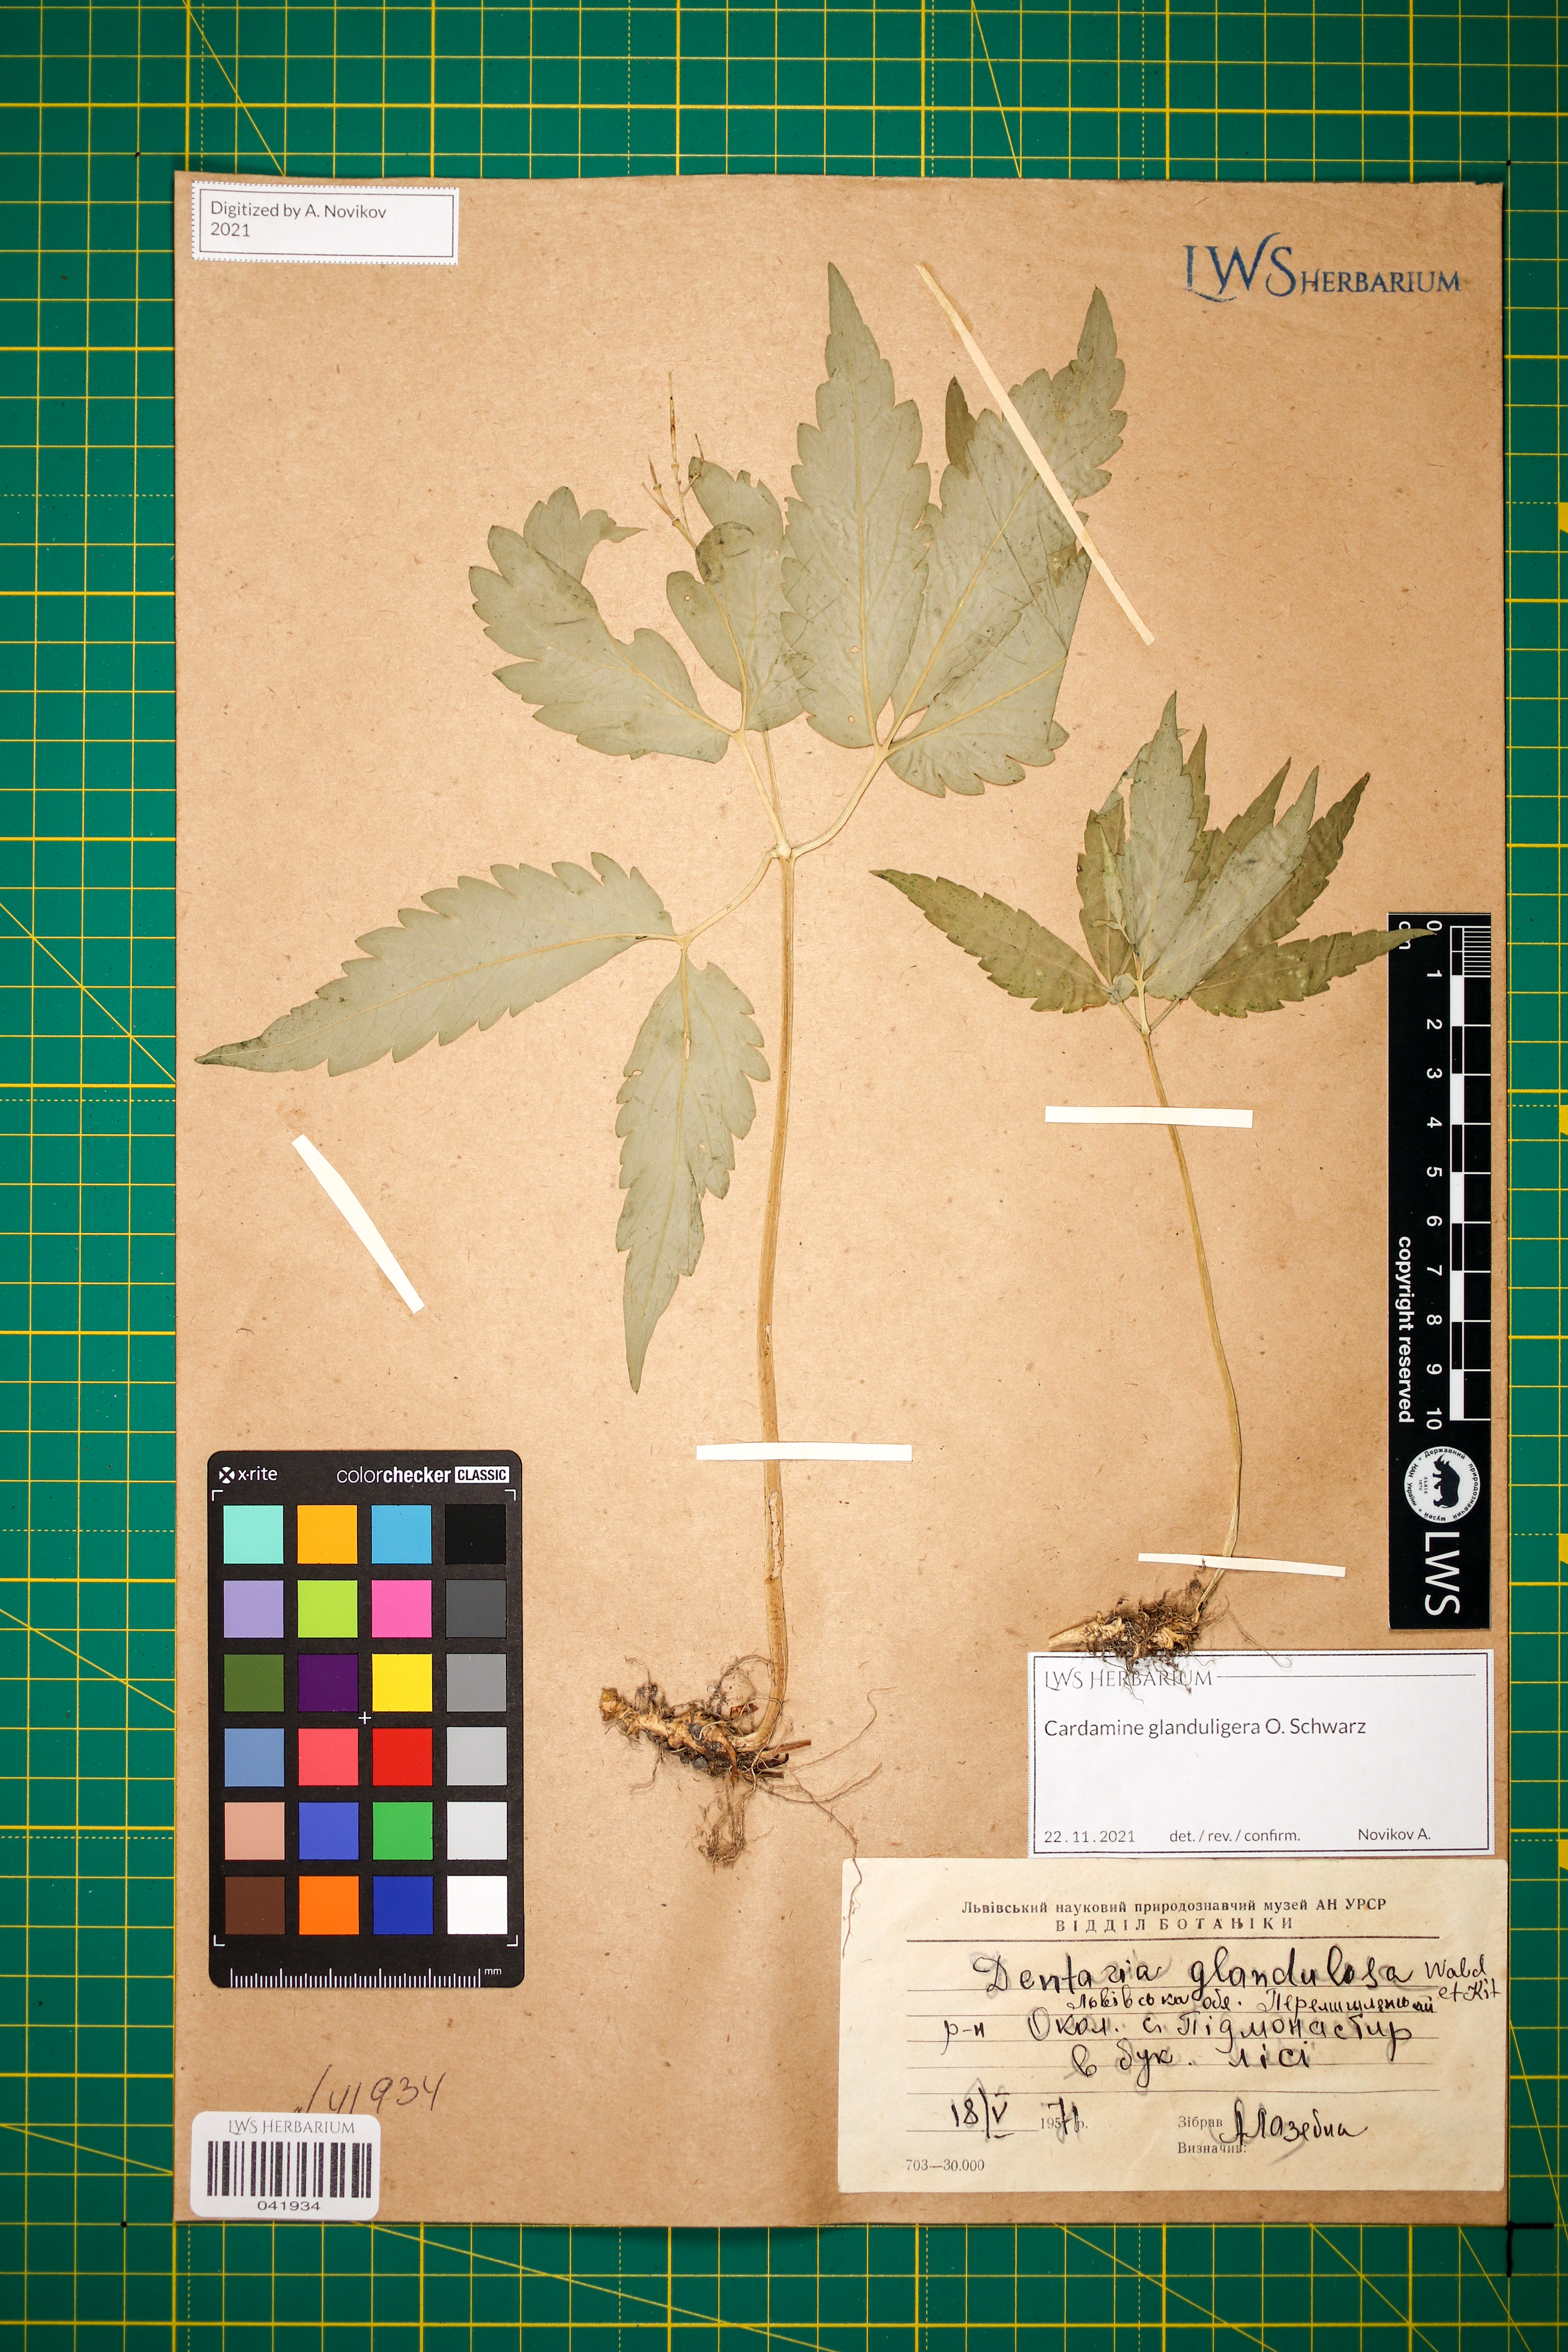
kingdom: Plantae
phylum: Tracheophyta
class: Magnoliopsida
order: Brassicales
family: Brassicaceae
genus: Cardamine
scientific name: Cardamine glanduligera
